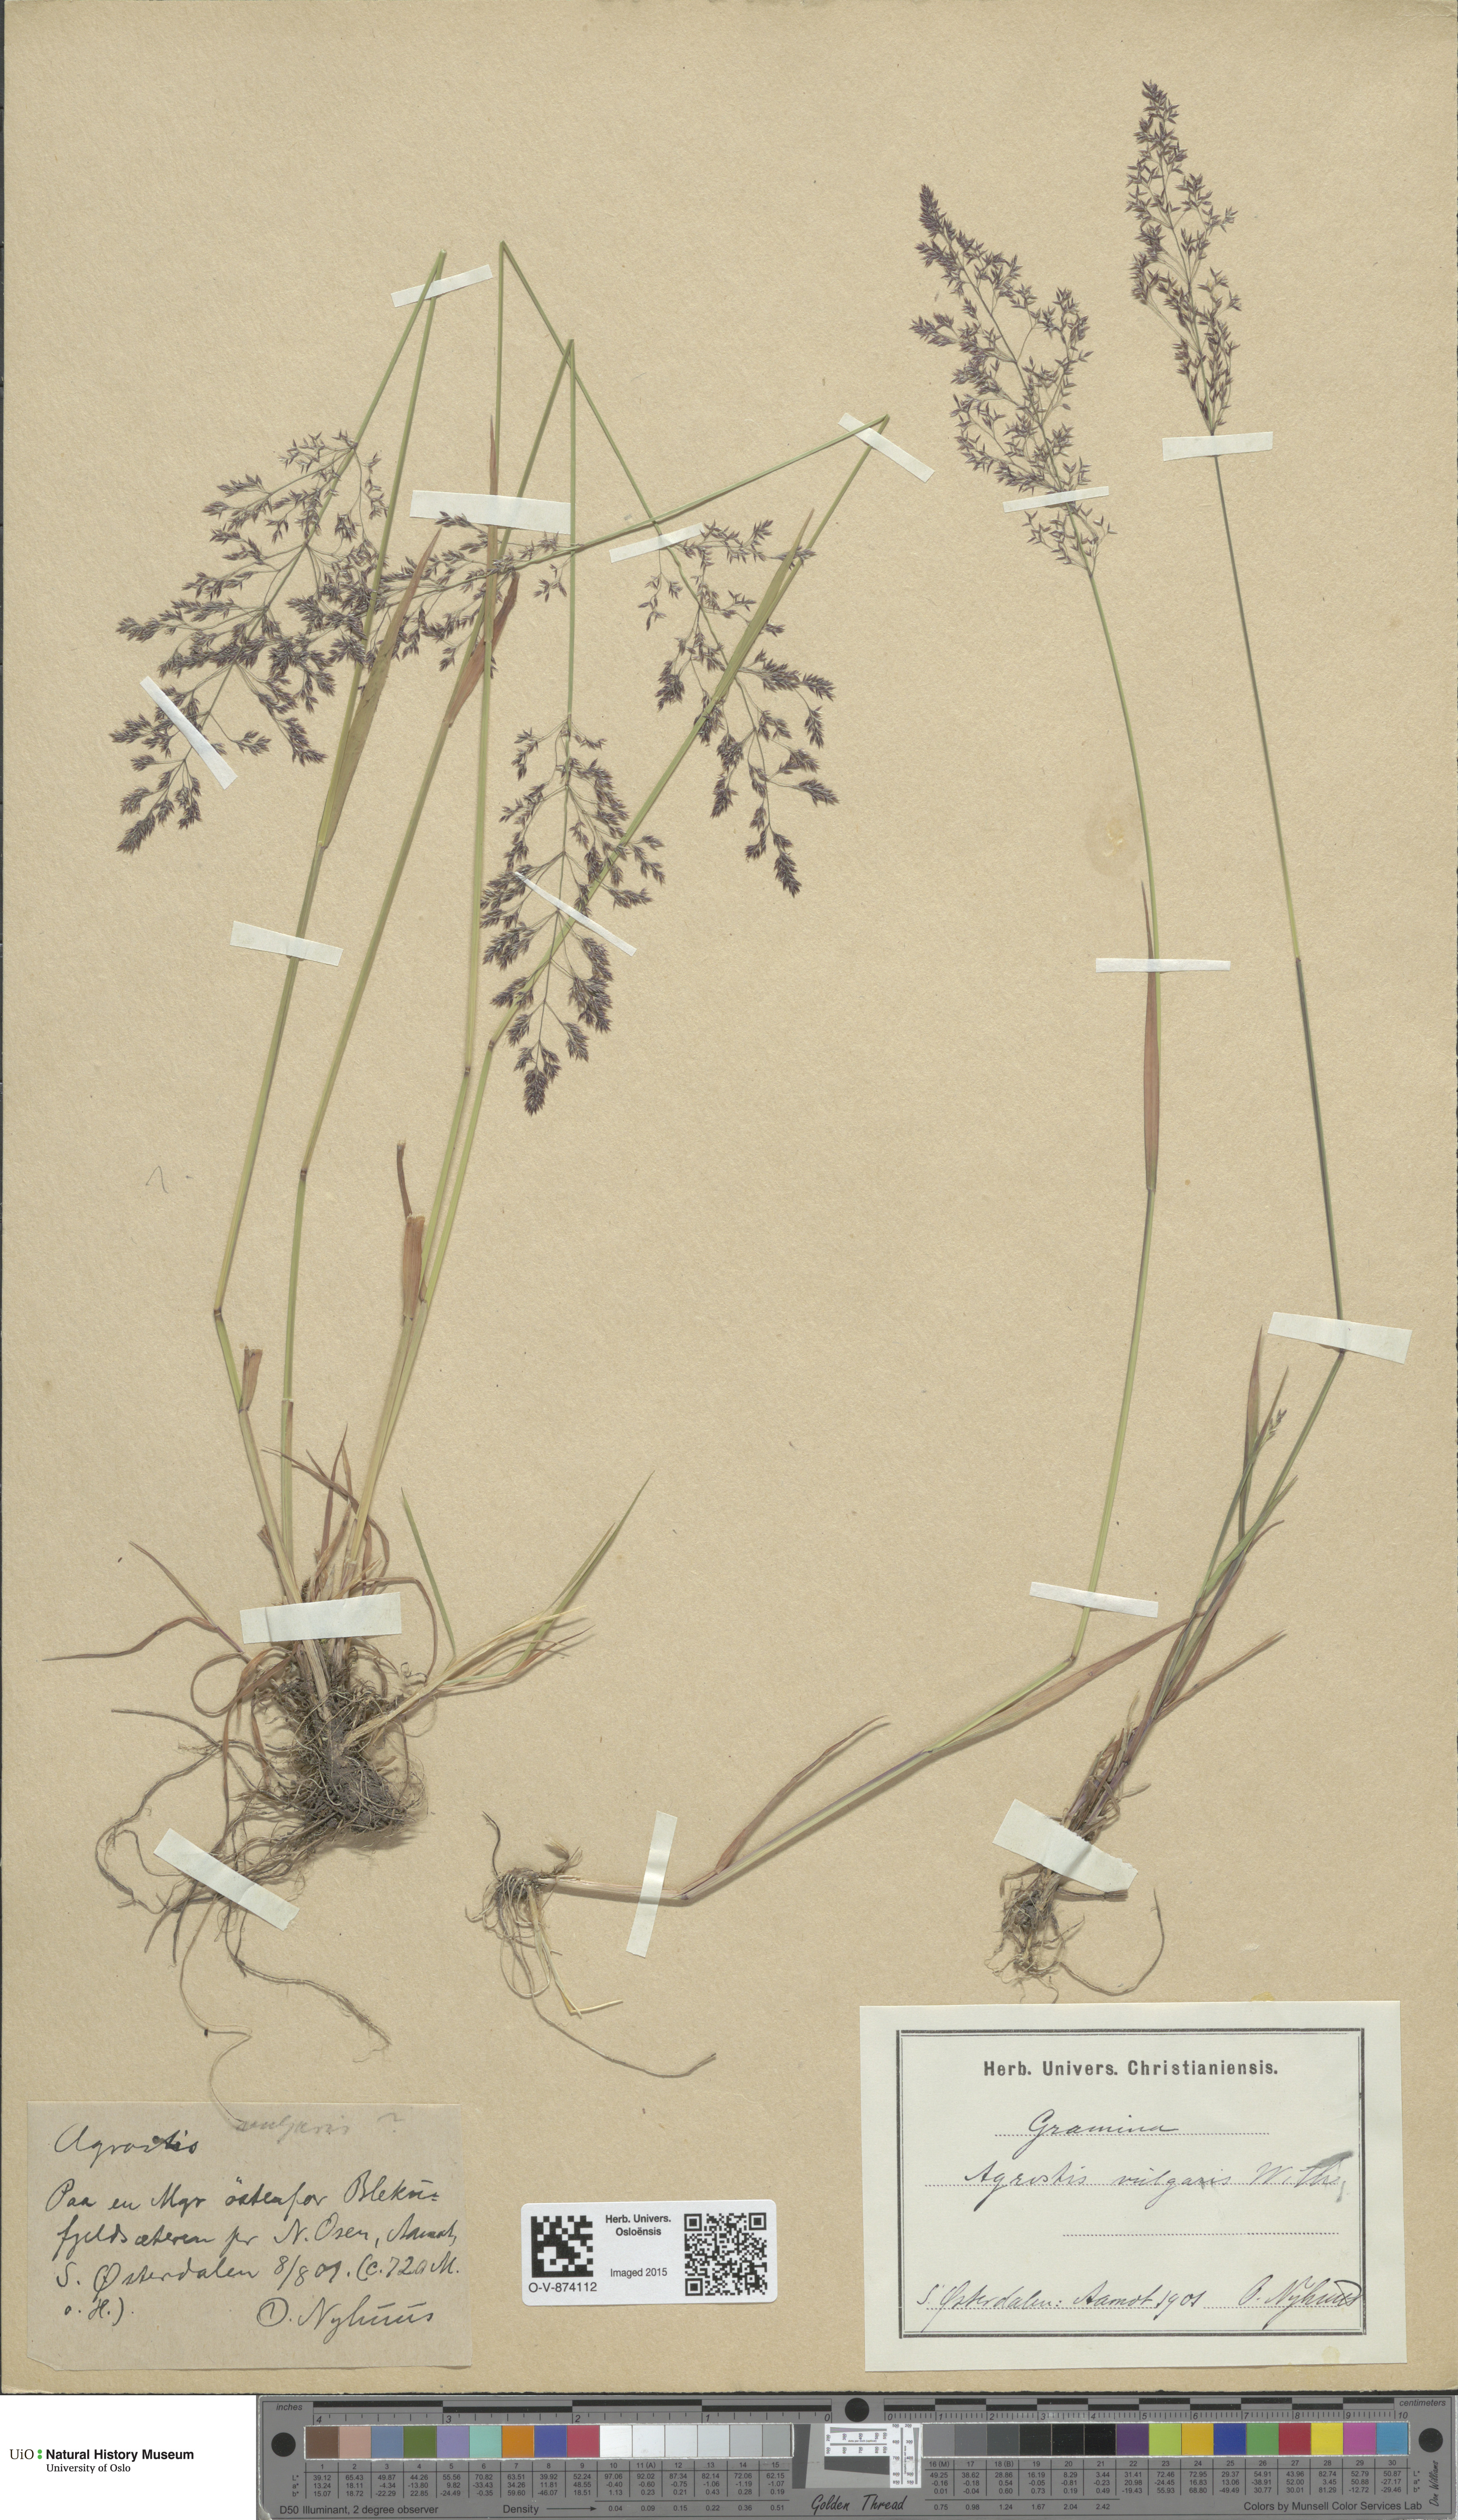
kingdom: Plantae
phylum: Tracheophyta
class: Liliopsida
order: Poales
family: Poaceae
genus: Agrostis
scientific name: Agrostis capillaris
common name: Colonial bentgrass
